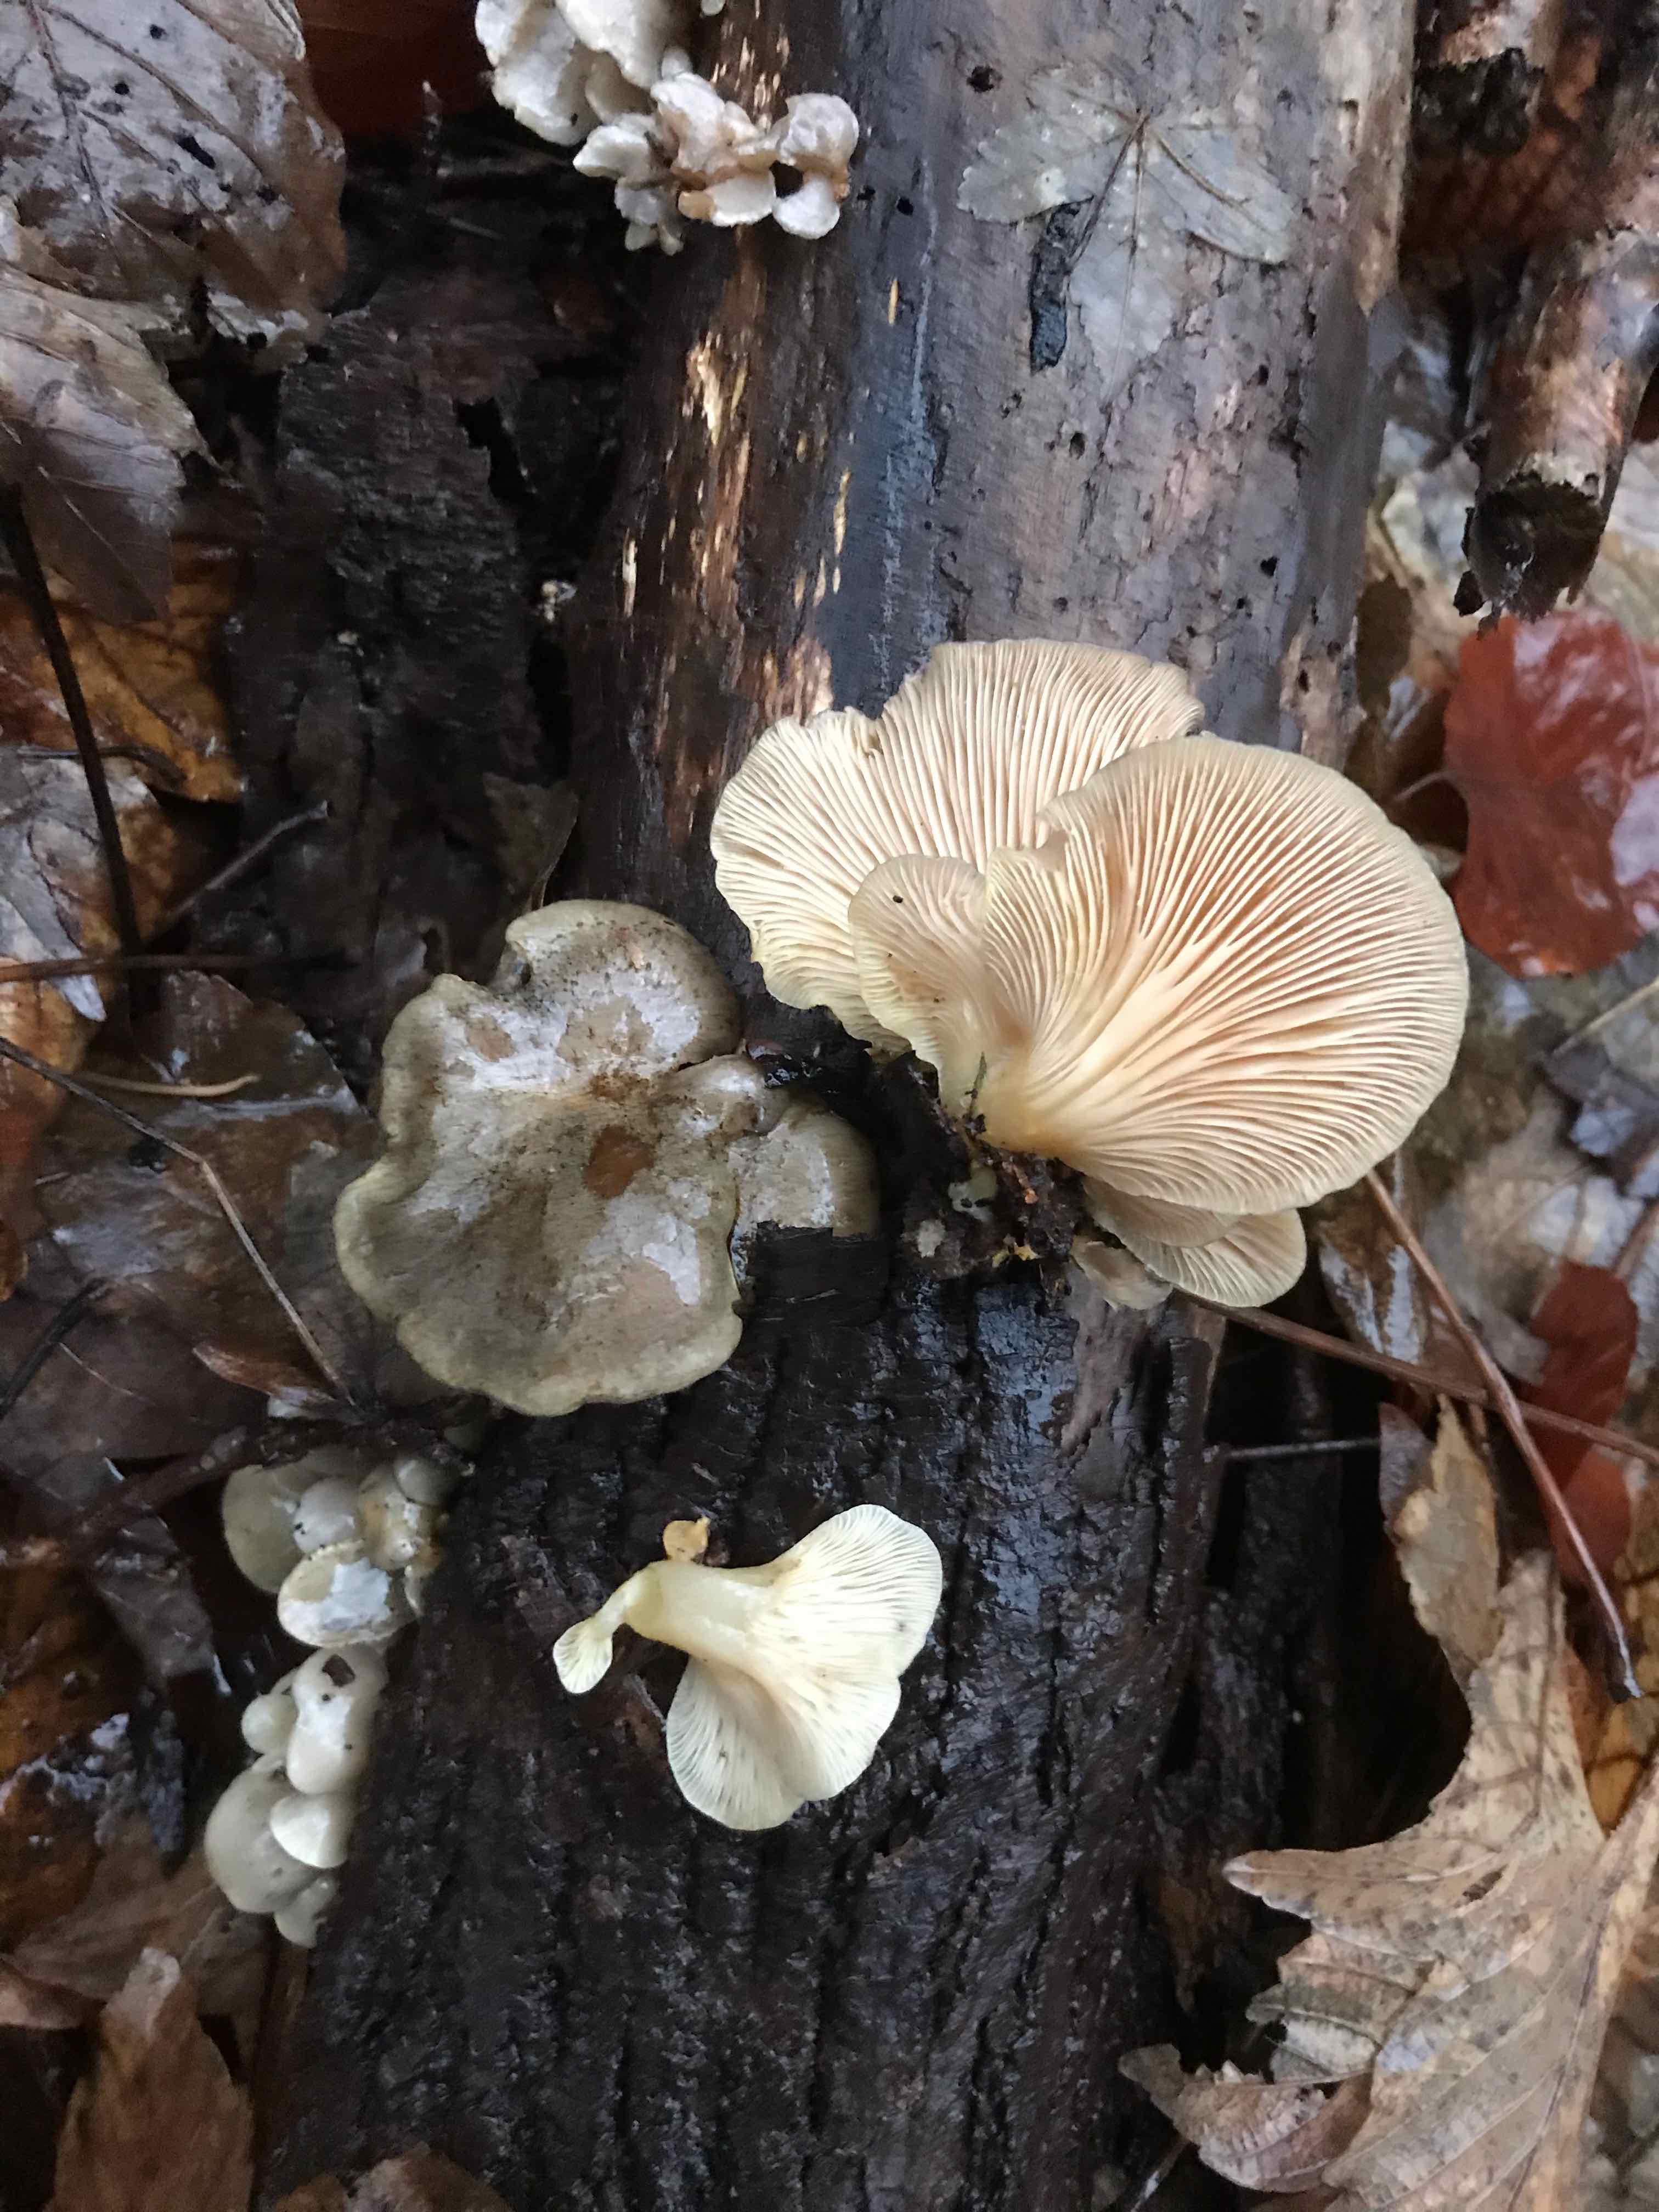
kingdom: Fungi
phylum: Basidiomycota
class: Agaricomycetes
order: Agaricales
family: Sarcomyxaceae
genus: Sarcomyxa
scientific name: Sarcomyxa serotina
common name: gummihat
